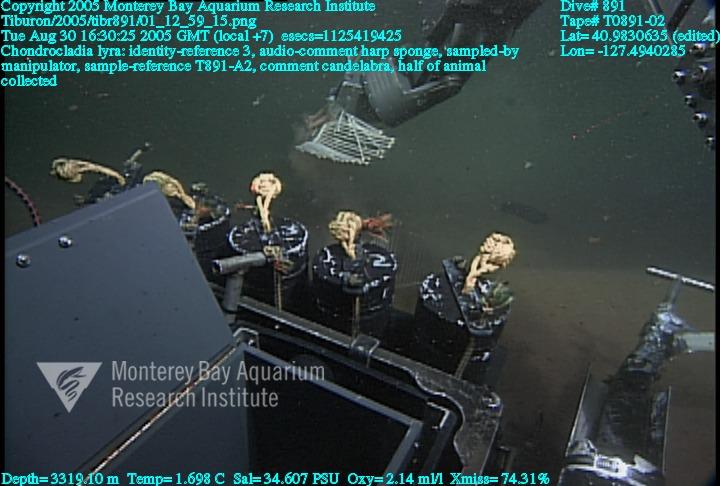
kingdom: Animalia
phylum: Porifera
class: Demospongiae
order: Poecilosclerida
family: Cladorhizidae
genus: Chondrocladia
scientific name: Chondrocladia lyra
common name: Harp sponge
